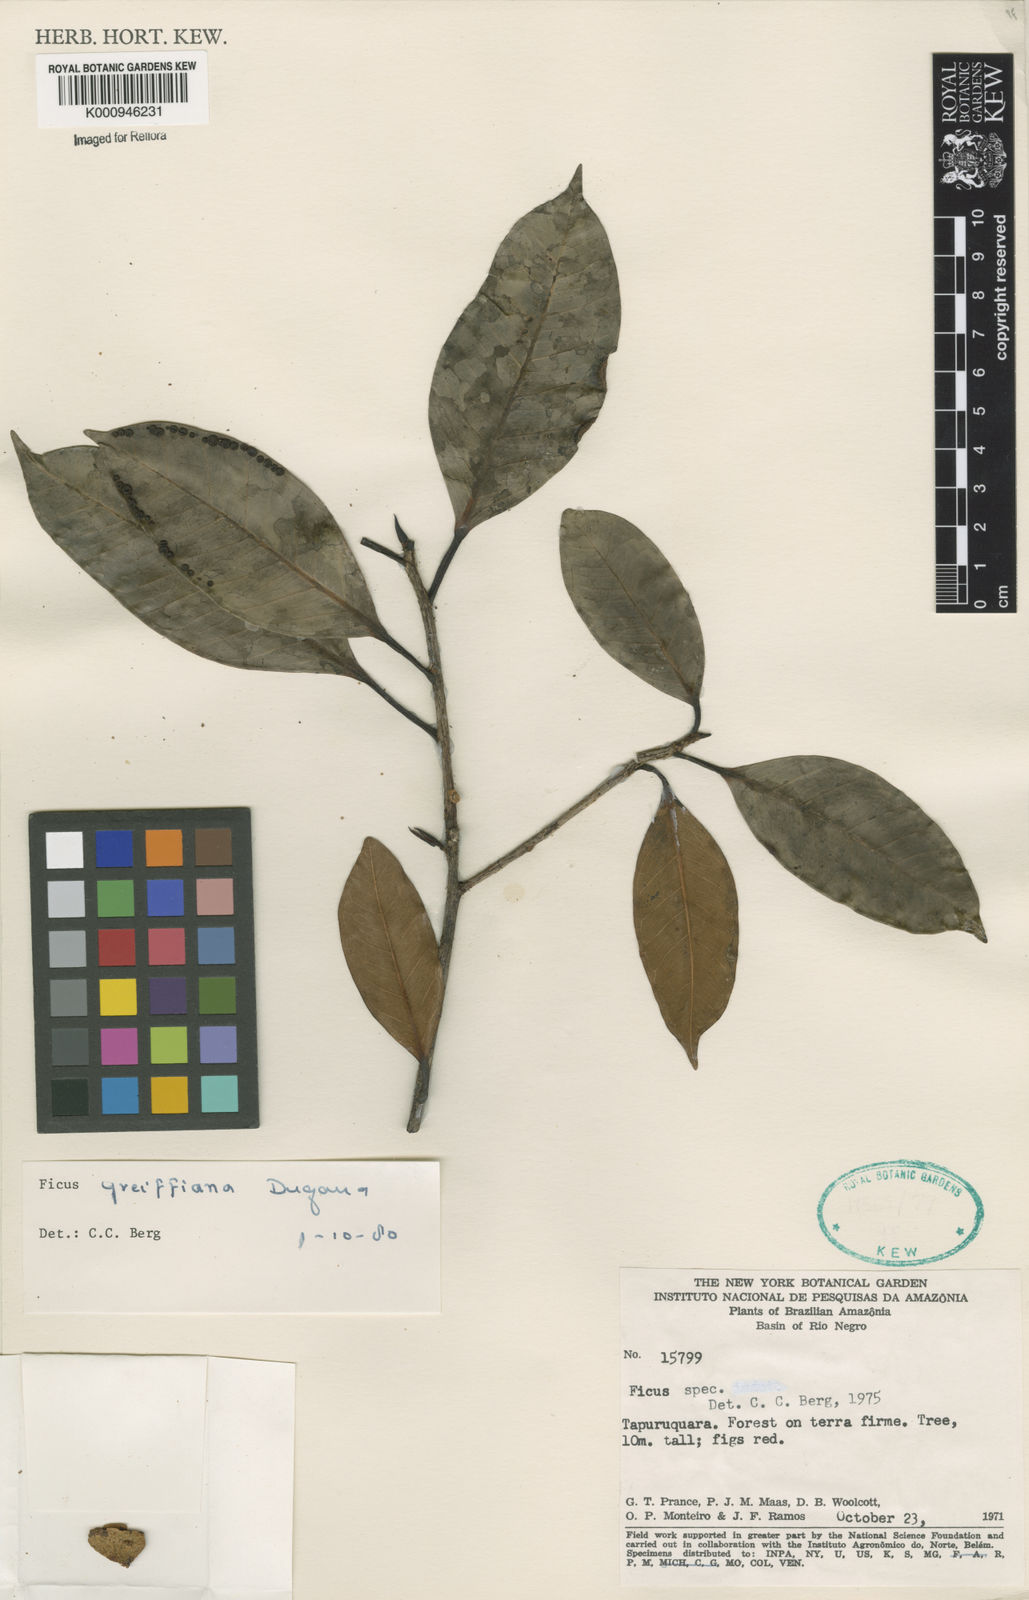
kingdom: Plantae
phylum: Tracheophyta
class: Magnoliopsida
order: Rosales
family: Moraceae
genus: Ficus
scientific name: Ficus americana
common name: Jamaican cherry fig
